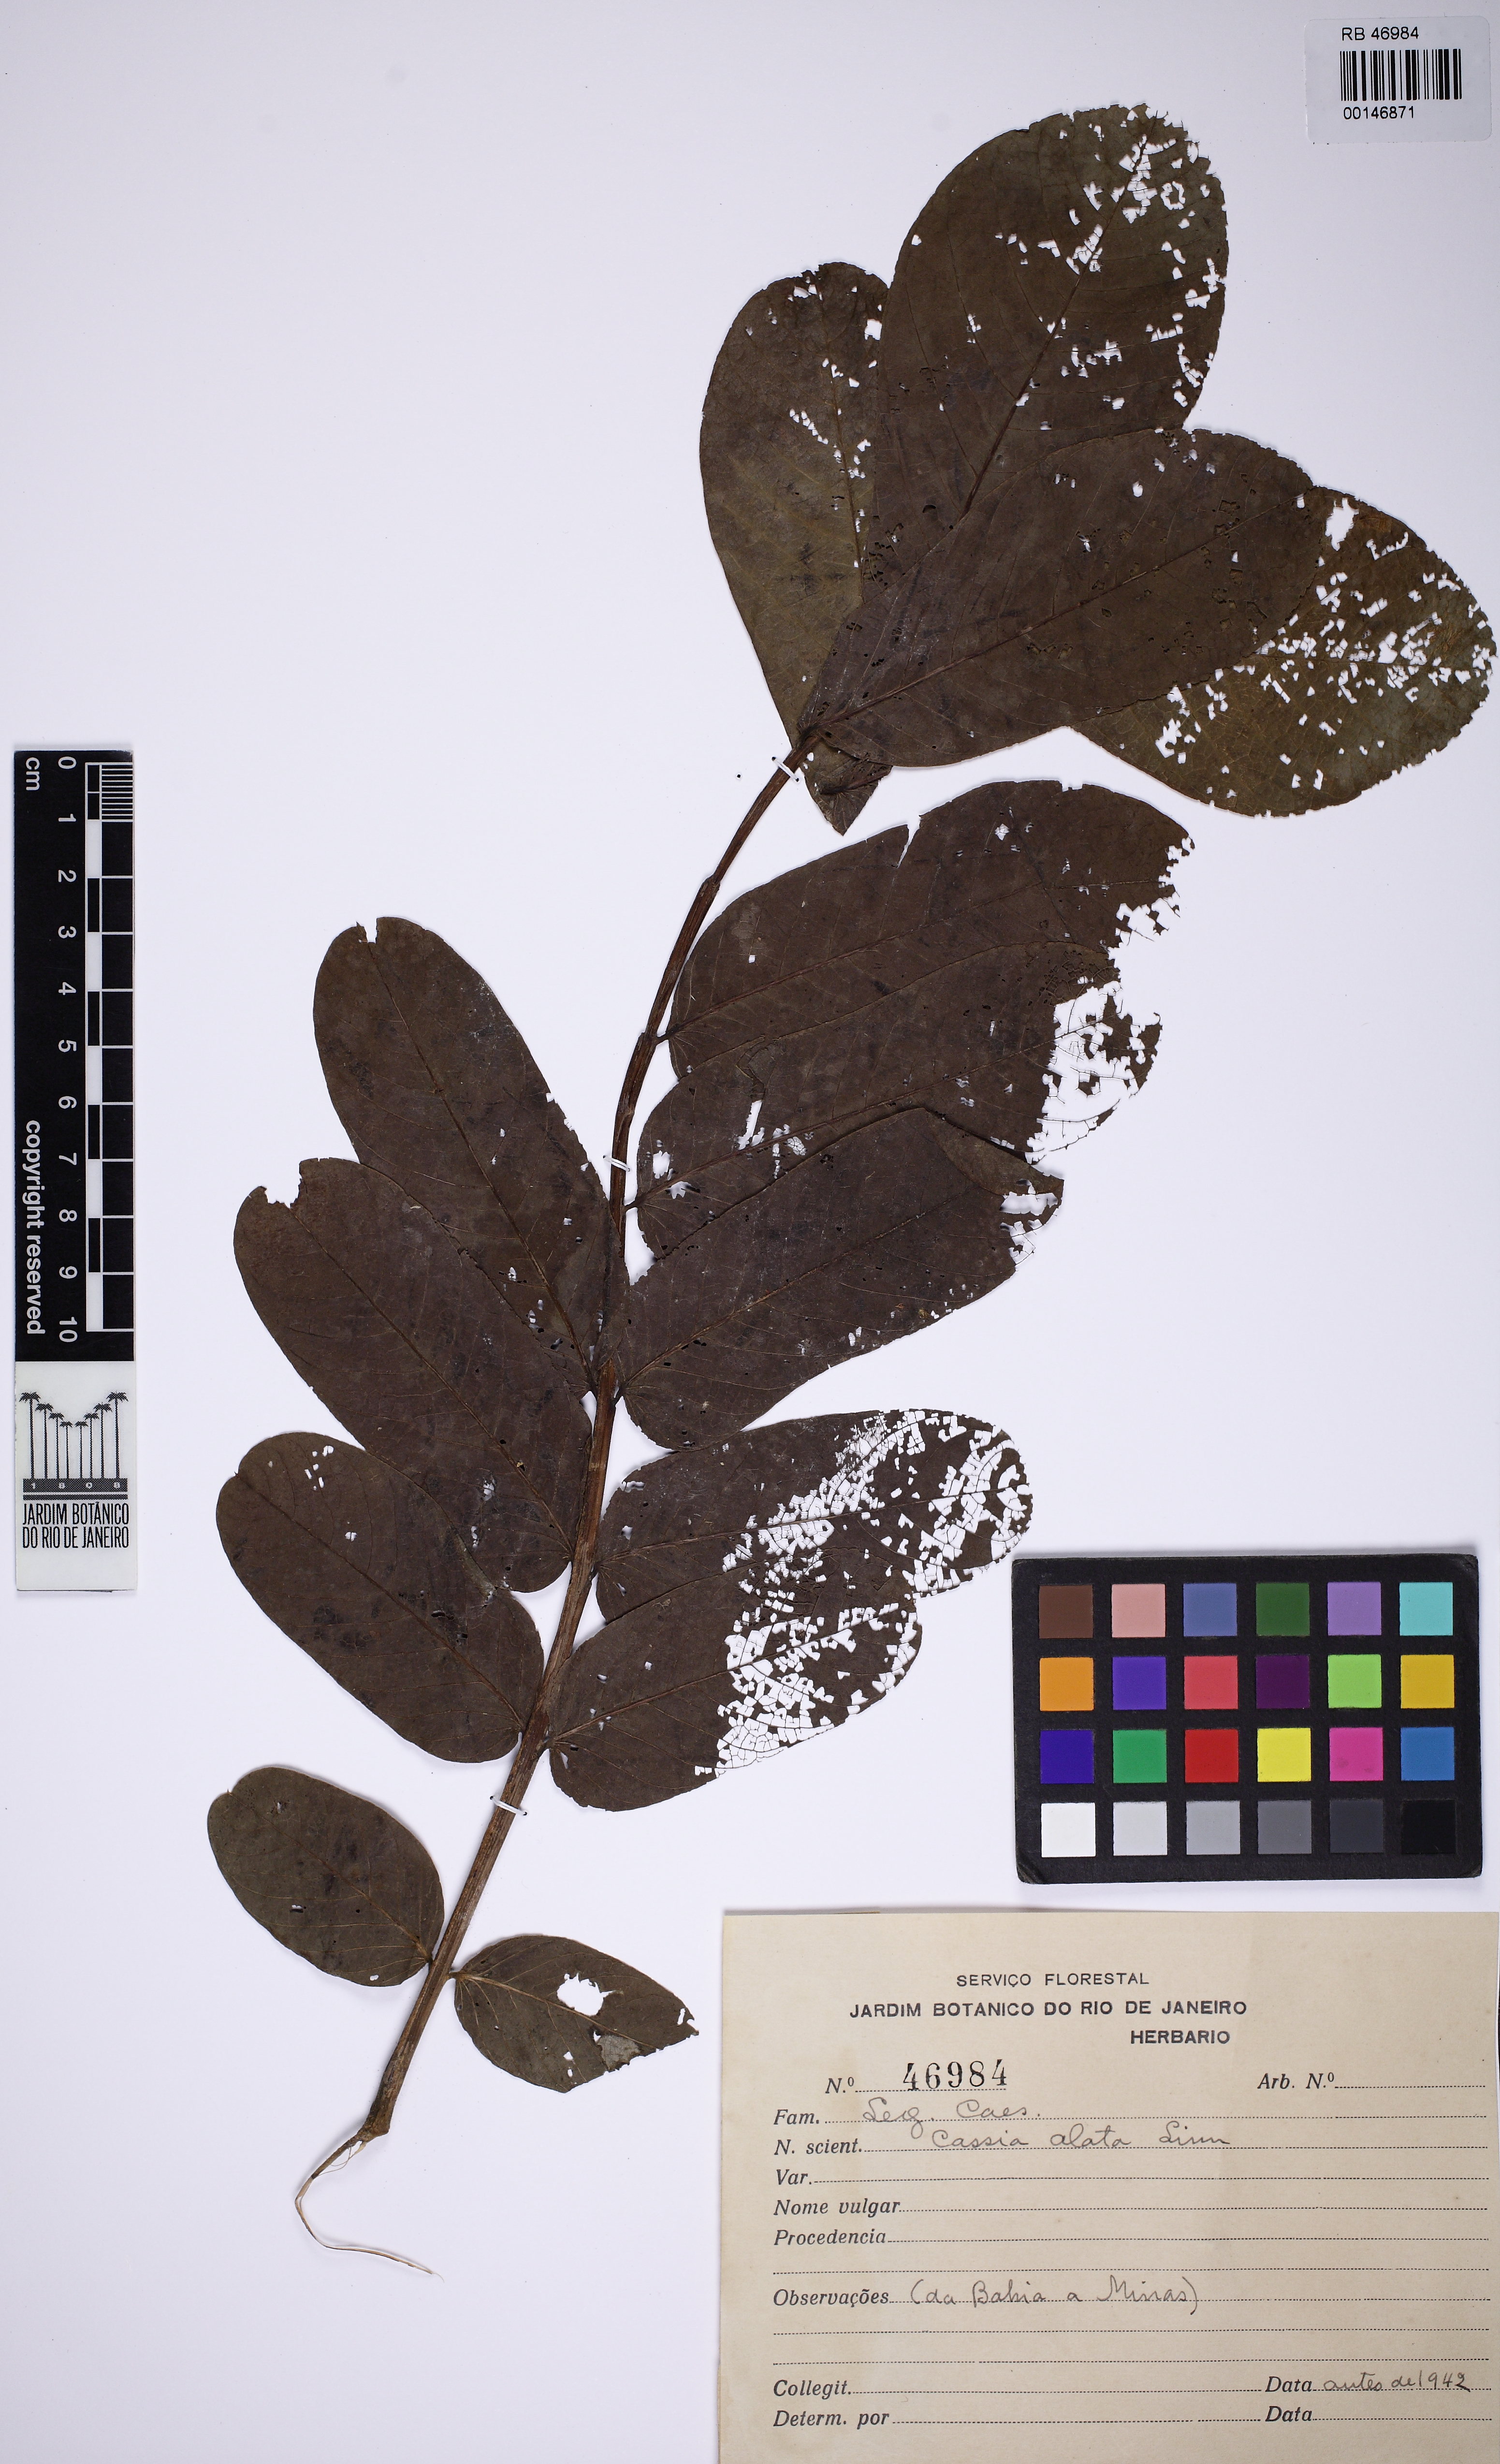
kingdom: Plantae
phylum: Tracheophyta
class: Magnoliopsida
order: Fabales
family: Fabaceae
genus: Senna
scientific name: Senna alata
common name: Emperor's candlesticks
